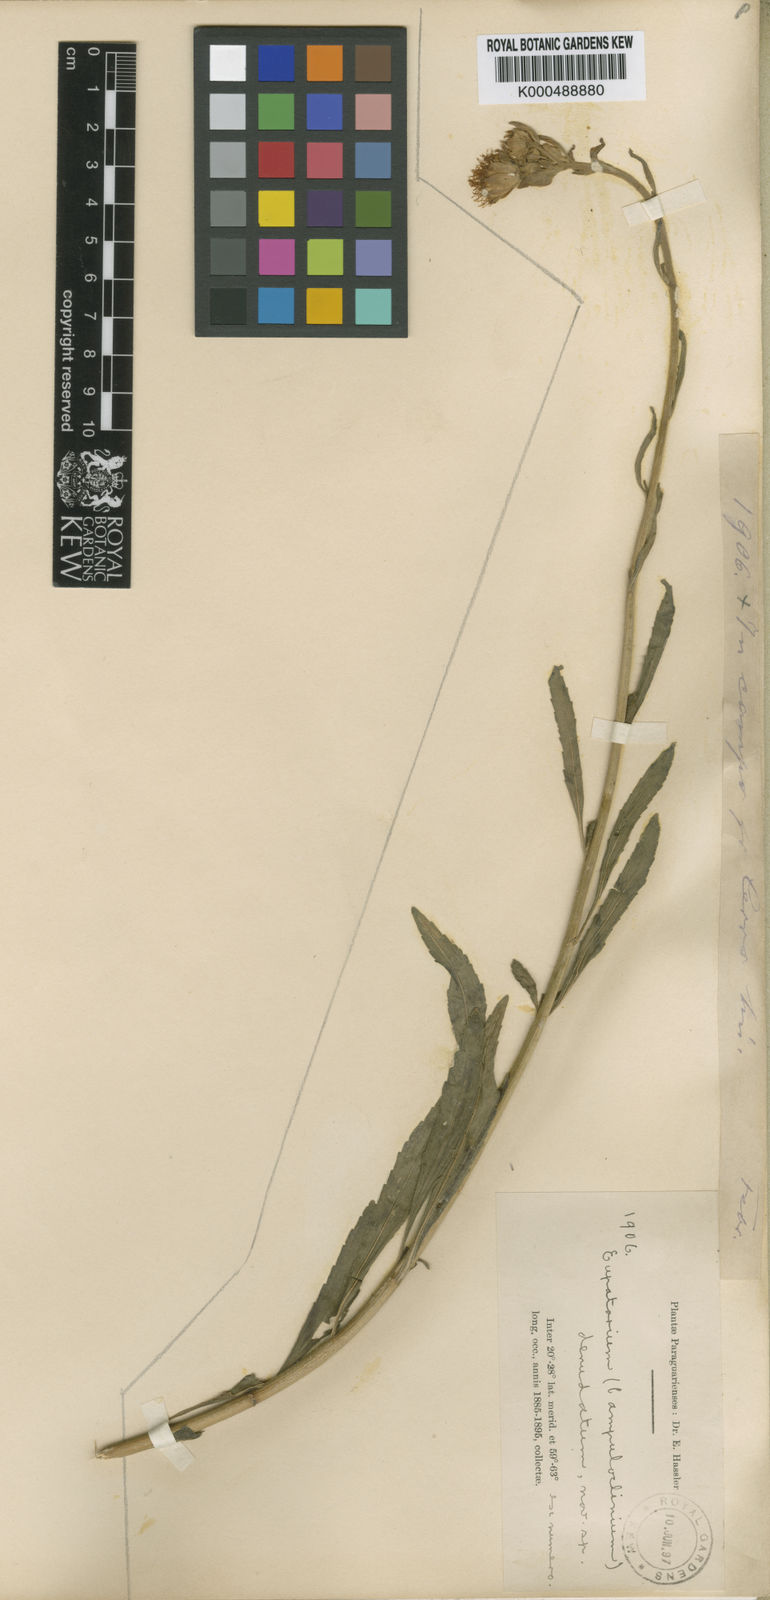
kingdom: Plantae
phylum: Tracheophyta
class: Magnoliopsida
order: Asterales
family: Asteraceae
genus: Campuloclinium
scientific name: Campuloclinium macrocephalum
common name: Pompomweed
